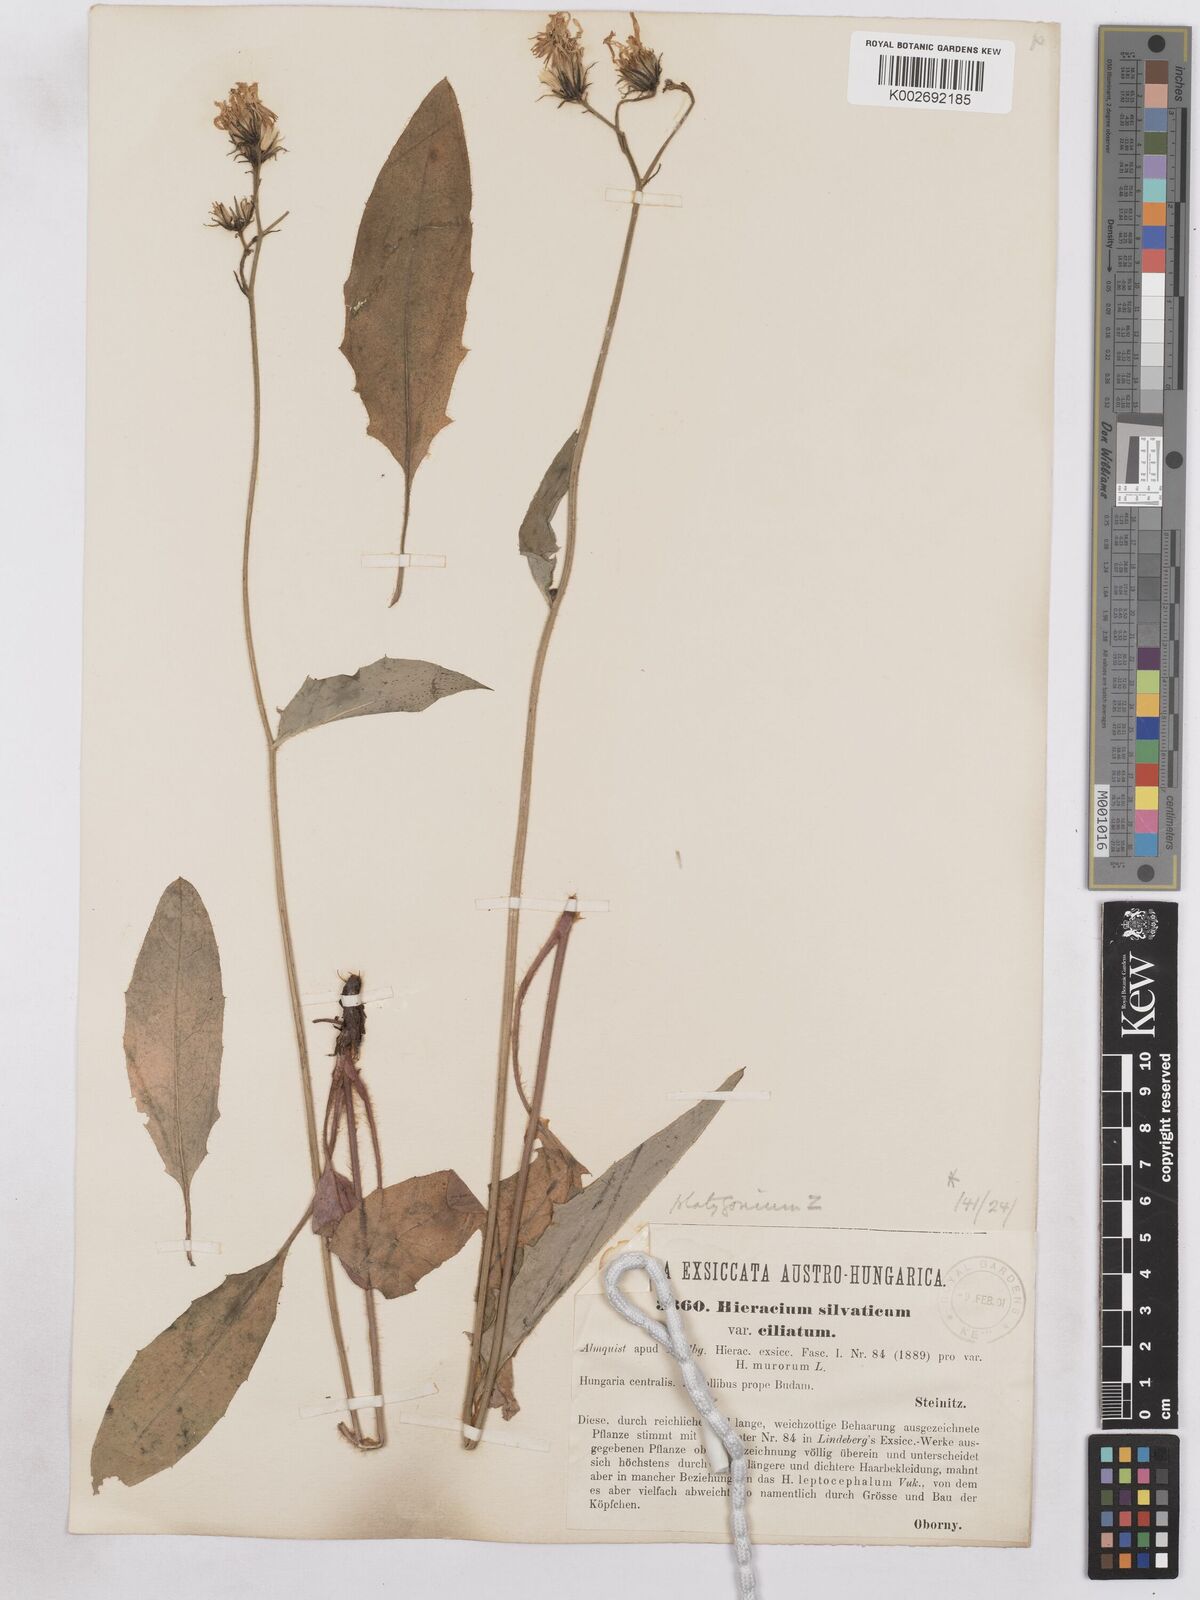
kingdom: Plantae
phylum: Tracheophyta
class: Magnoliopsida
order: Asterales
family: Asteraceae
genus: Hieracium
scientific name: Hieracium diaphanoides
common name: Fine-bracted hawkweed
